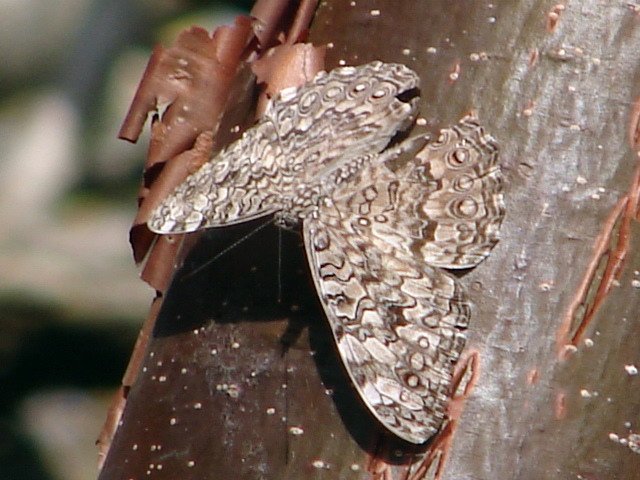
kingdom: Animalia
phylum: Arthropoda
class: Insecta
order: Lepidoptera
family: Nymphalidae
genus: Hamadryas
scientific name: Hamadryas februa
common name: Gray Cracker
